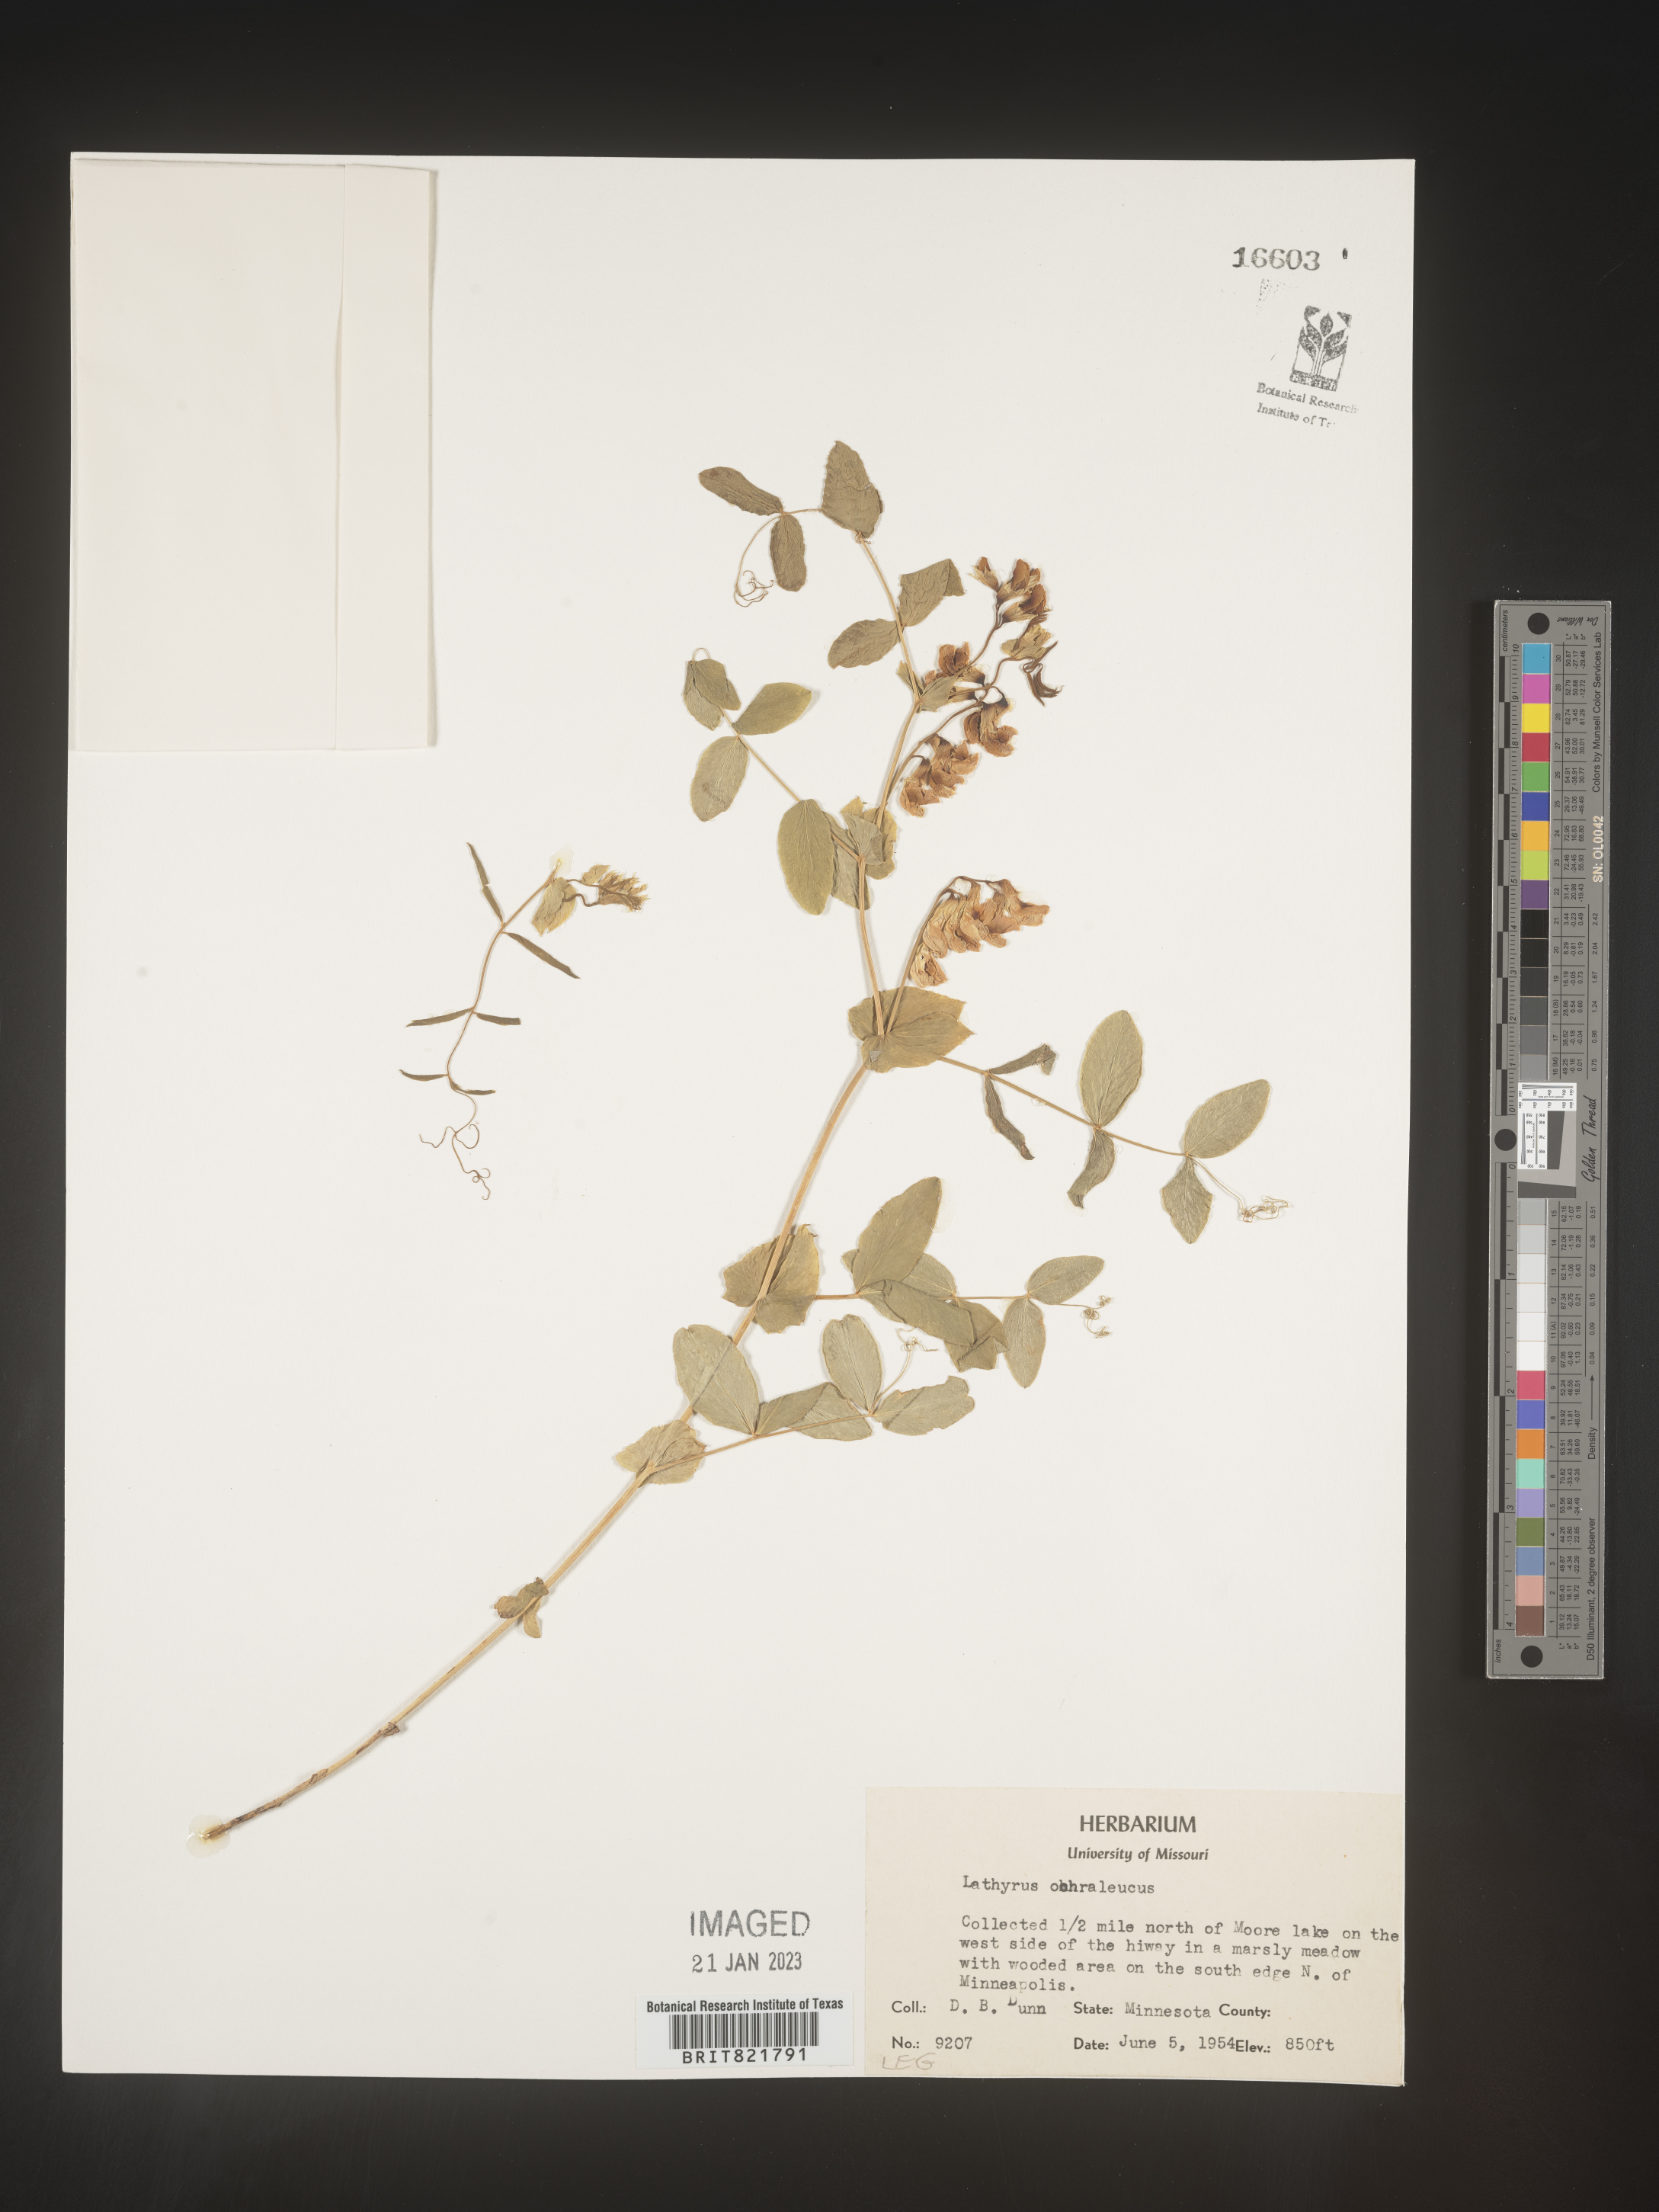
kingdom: Plantae
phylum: Tracheophyta
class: Magnoliopsida
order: Fabales
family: Fabaceae
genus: Lathyrus
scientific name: Lathyrus
